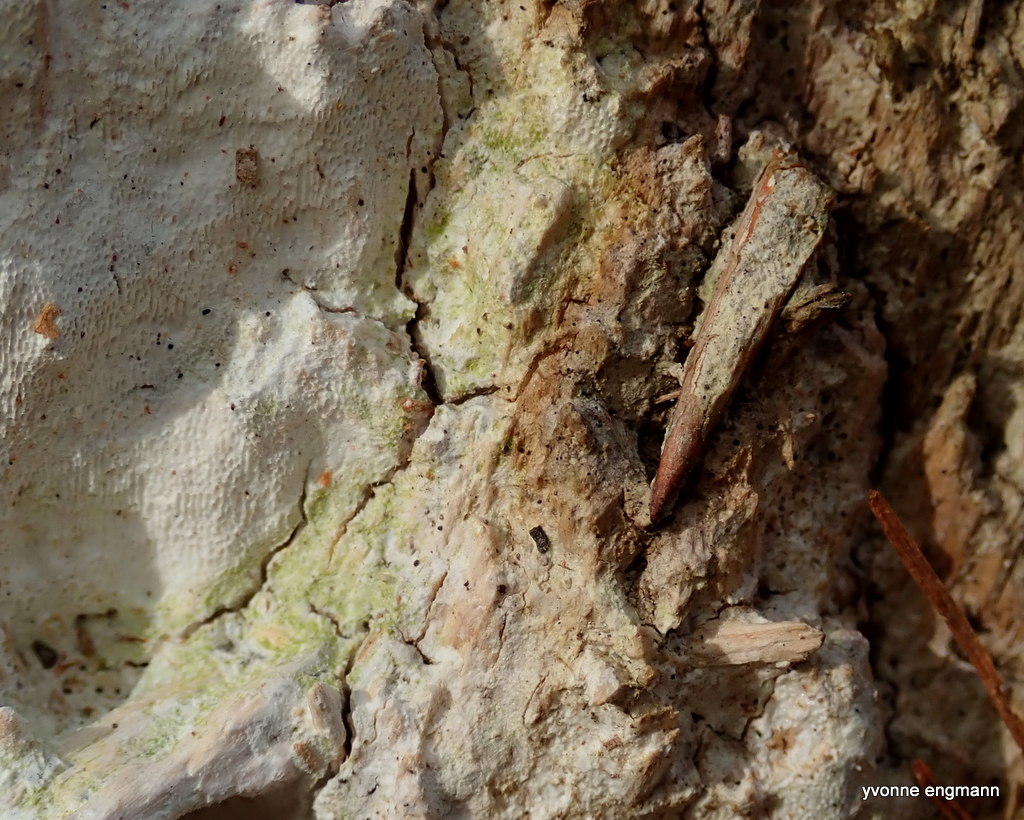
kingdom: Fungi
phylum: Basidiomycota
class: Agaricomycetes
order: Polyporales
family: Fomitopsidaceae
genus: Daedalea
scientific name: Daedalea xantha
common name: gul sejporesvamp
